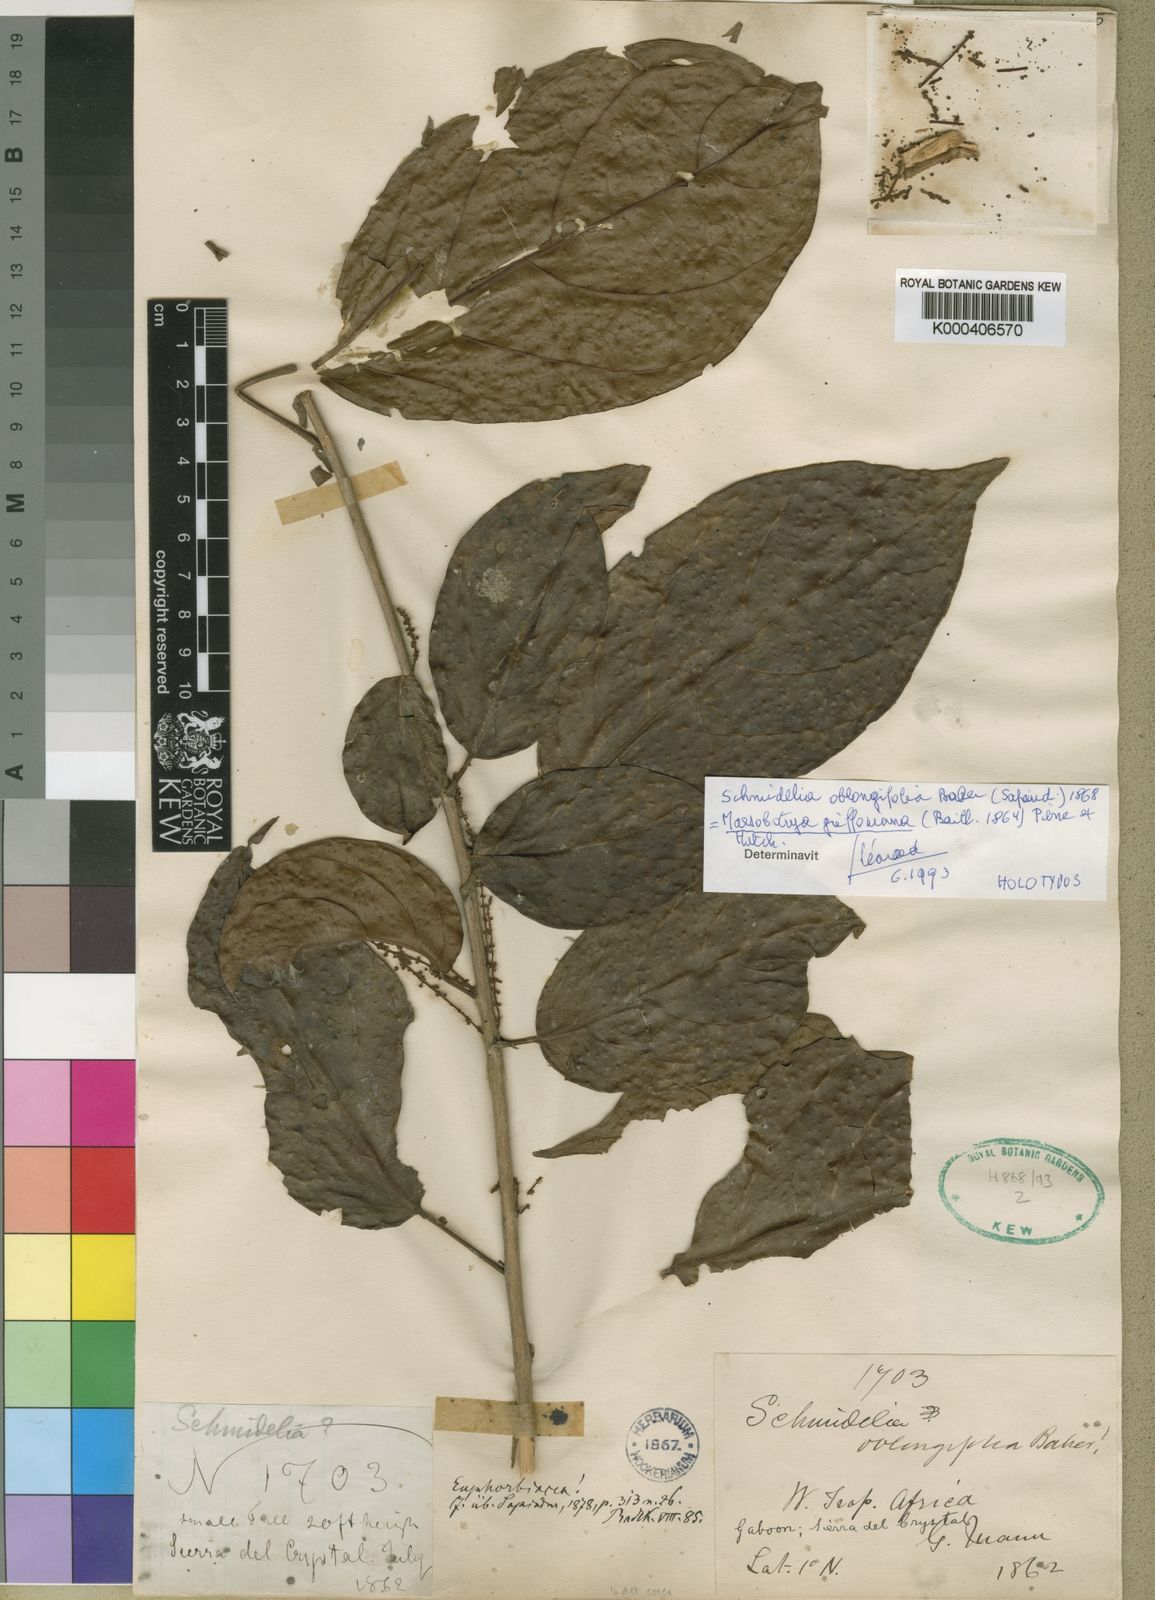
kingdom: Plantae
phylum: Tracheophyta
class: Magnoliopsida
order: Malpighiales
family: Phyllanthaceae
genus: Maesobotrya
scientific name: Maesobotrya griffoniana
